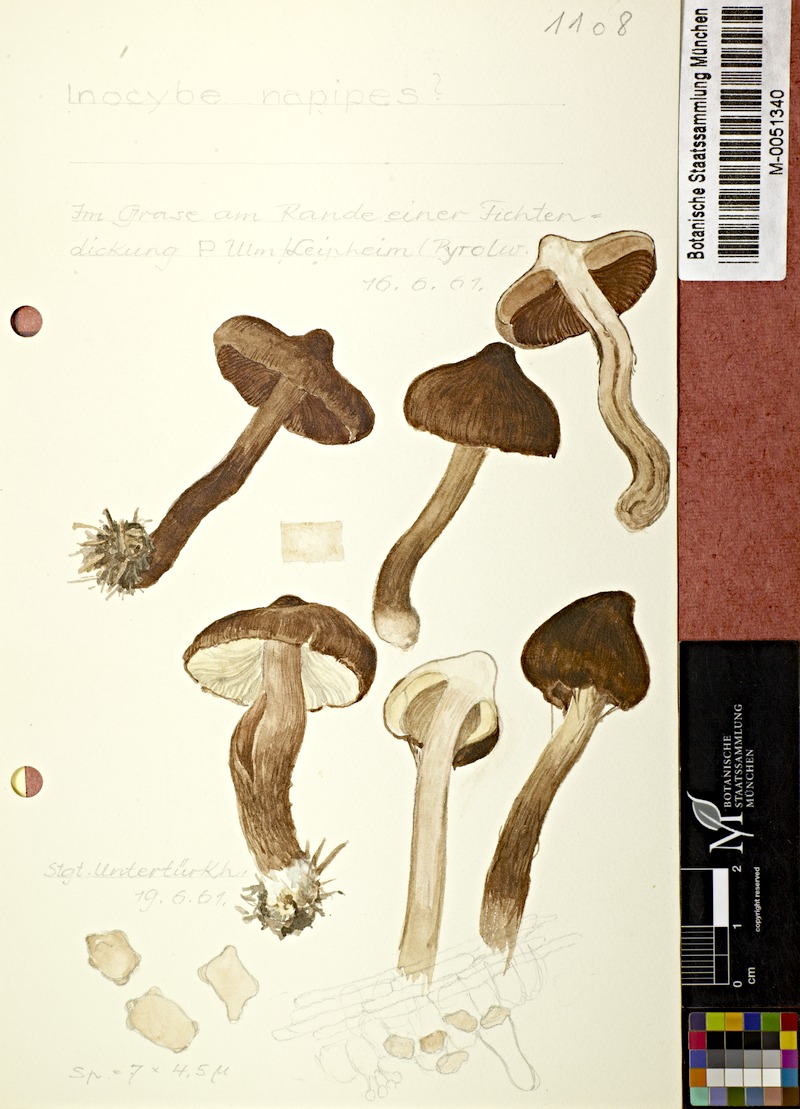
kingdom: Fungi
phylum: Basidiomycota
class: Agaricomycetes
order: Agaricales
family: Inocybaceae
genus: Inocybe
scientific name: Inocybe napipes
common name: Bulbous fibrecap
